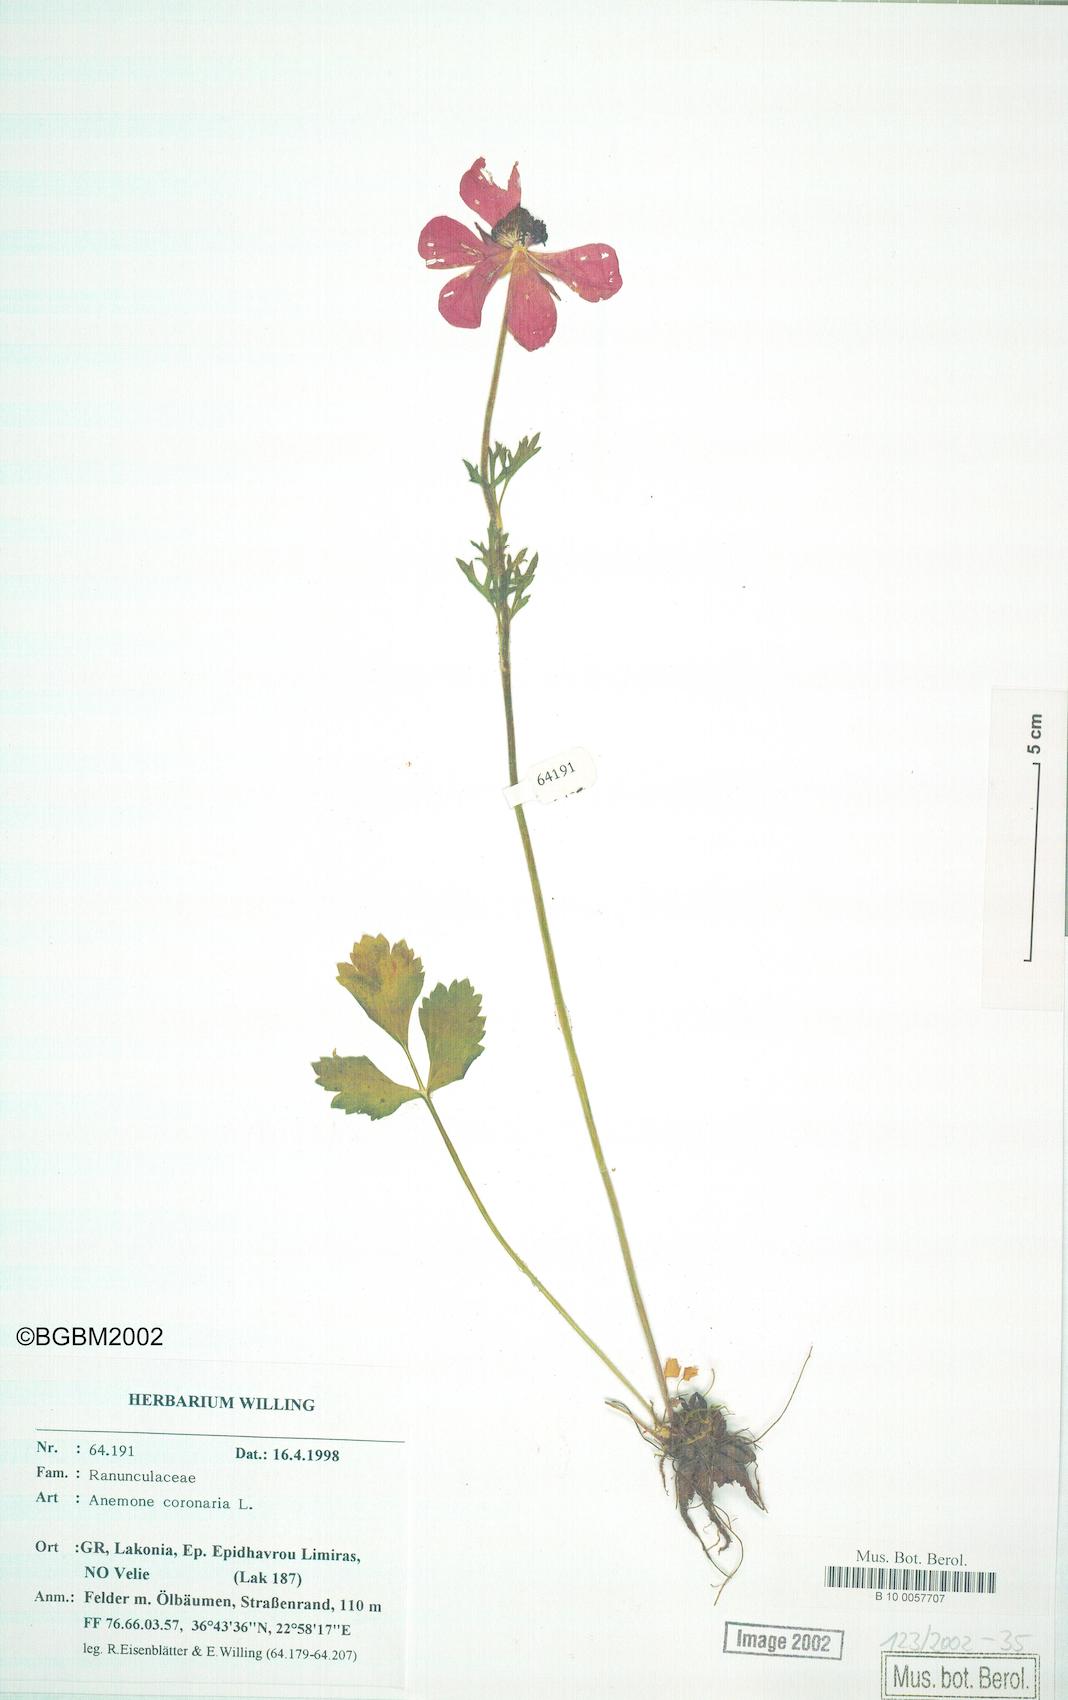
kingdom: Plantae
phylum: Tracheophyta
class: Magnoliopsida
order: Ranunculales
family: Ranunculaceae
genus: Anemone
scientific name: Anemone coronaria
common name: Poppy anemone
